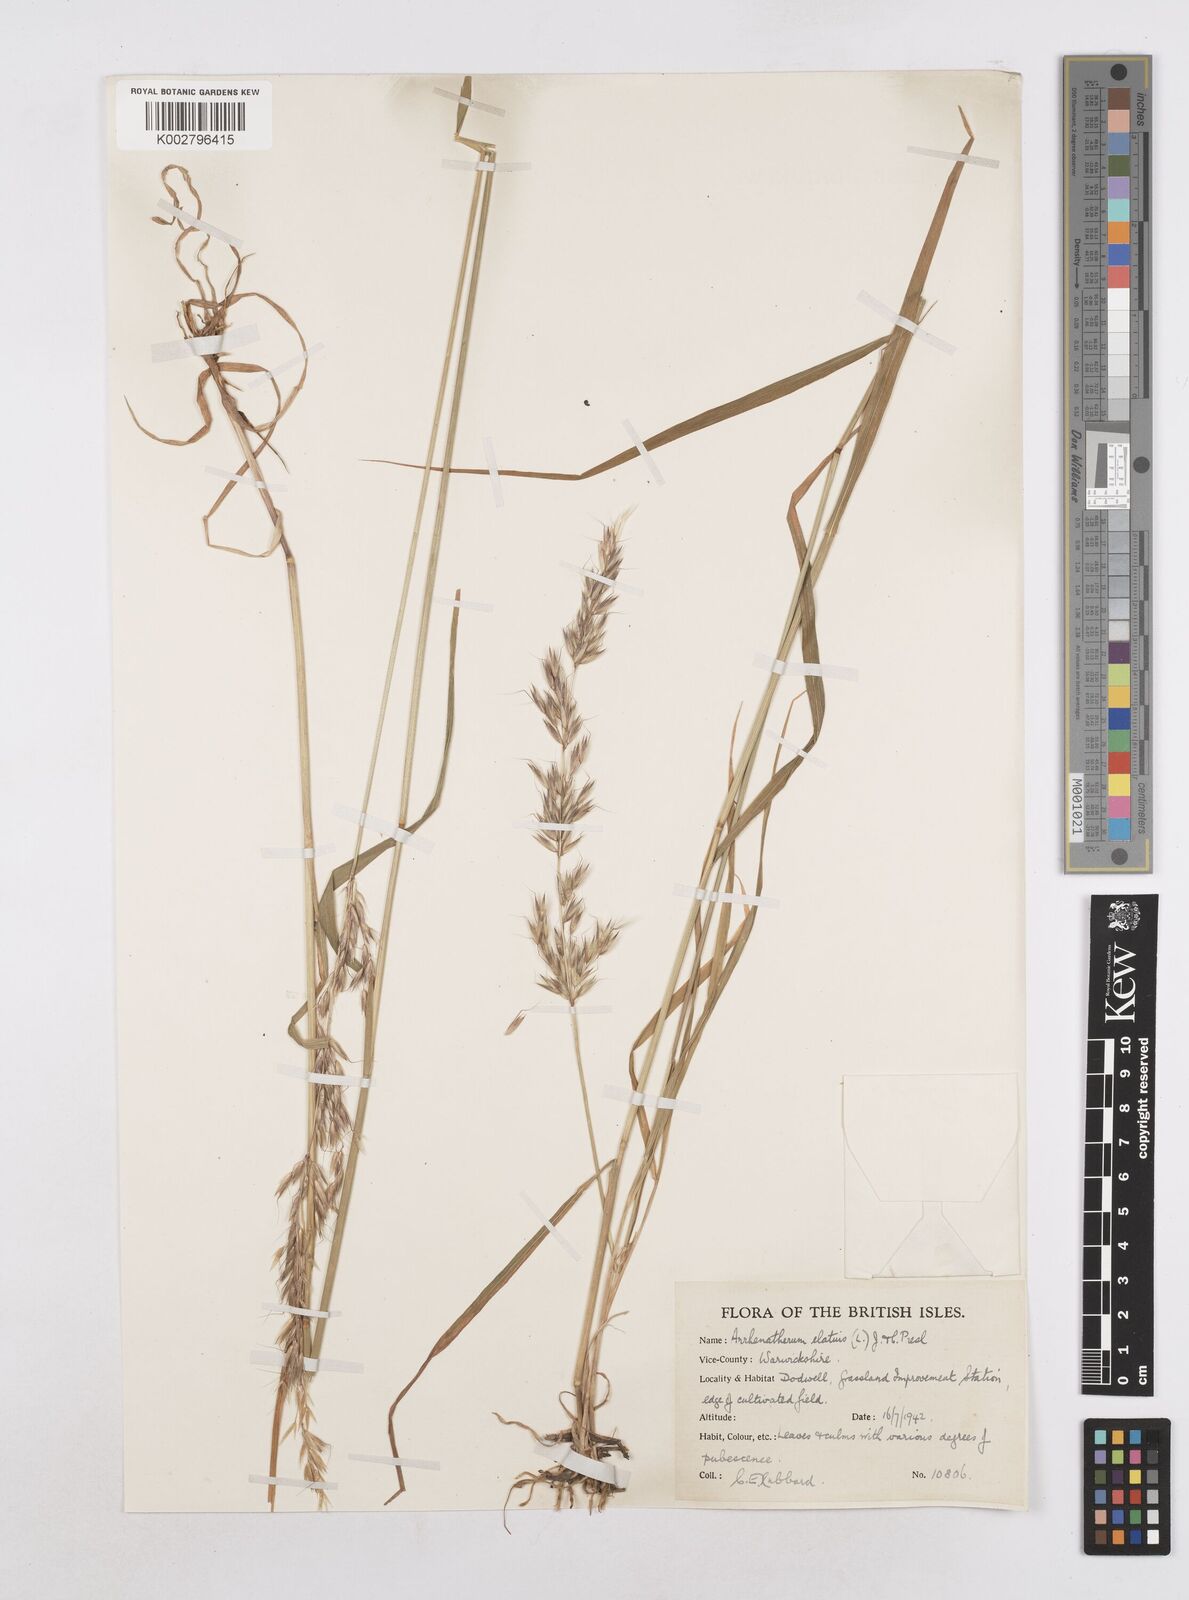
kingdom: Plantae
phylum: Tracheophyta
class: Liliopsida
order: Poales
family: Poaceae
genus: Arrhenatherum
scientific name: Arrhenatherum elatius
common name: Tall oatgrass
